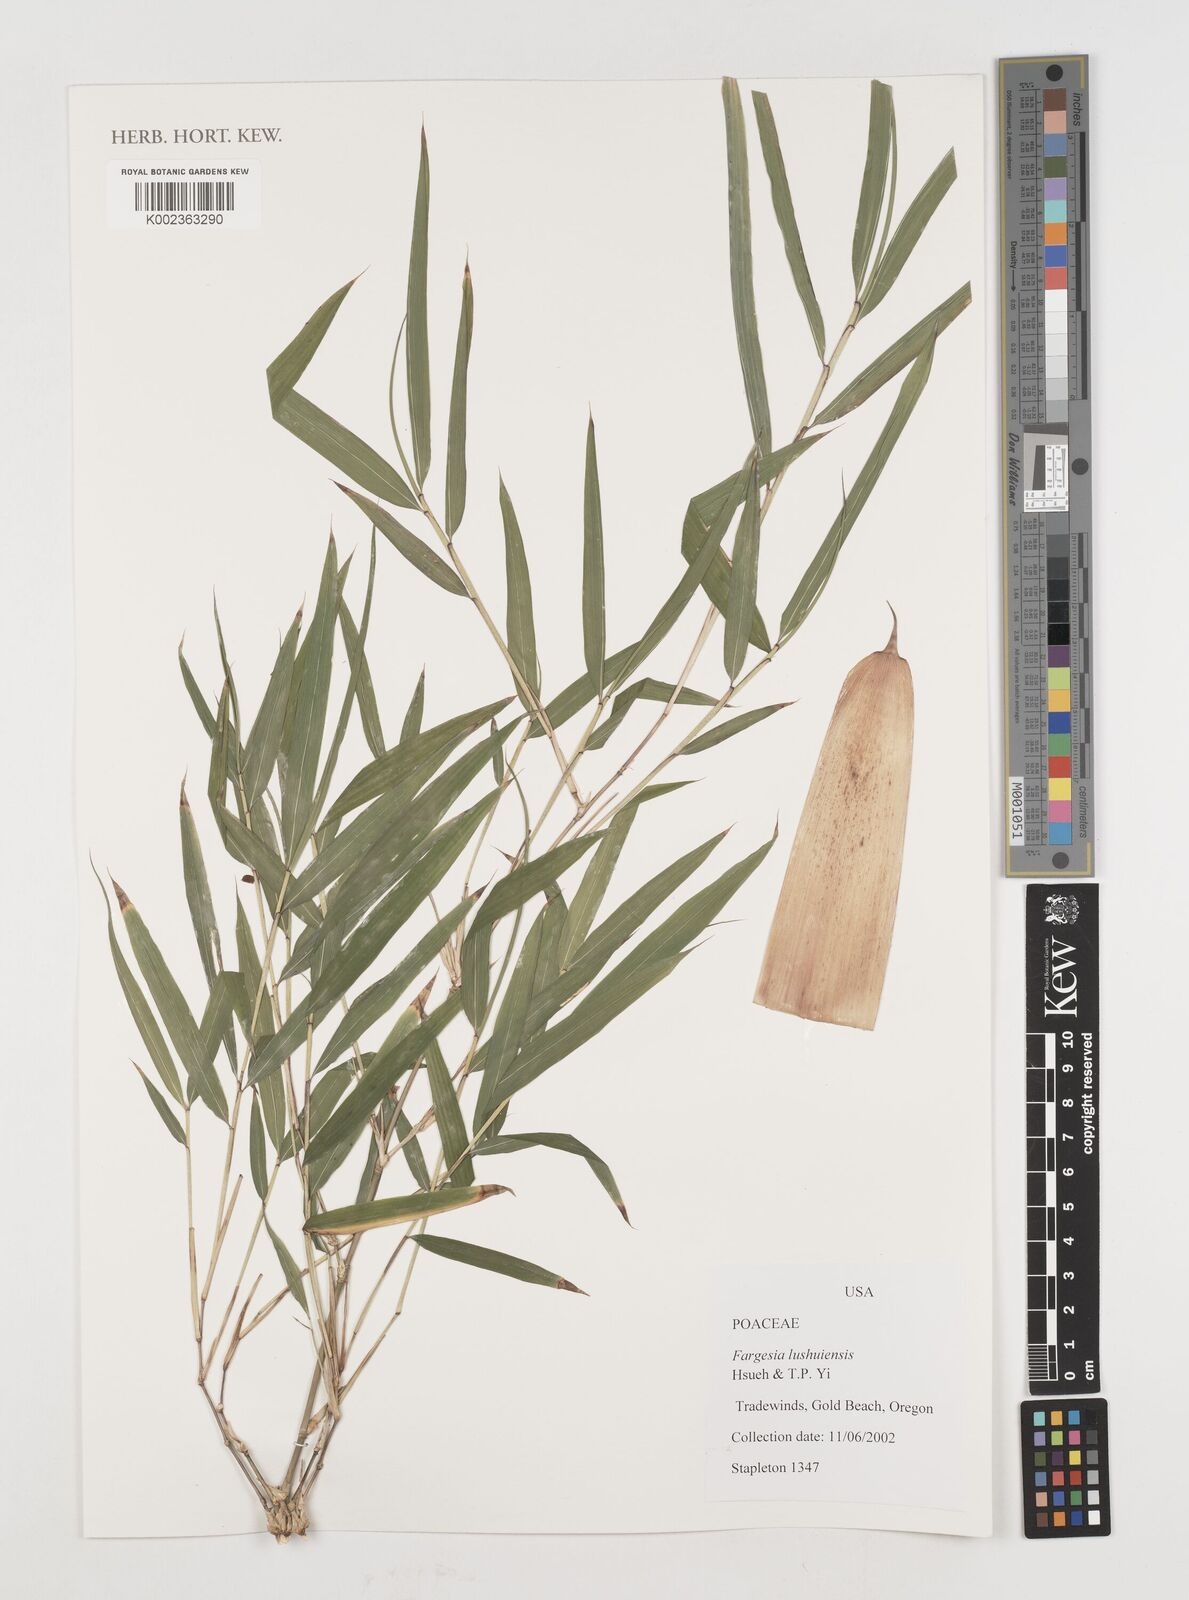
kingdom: Plantae
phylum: Tracheophyta
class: Liliopsida
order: Poales
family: Poaceae
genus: Borinda
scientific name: Borinda lushuiensis
